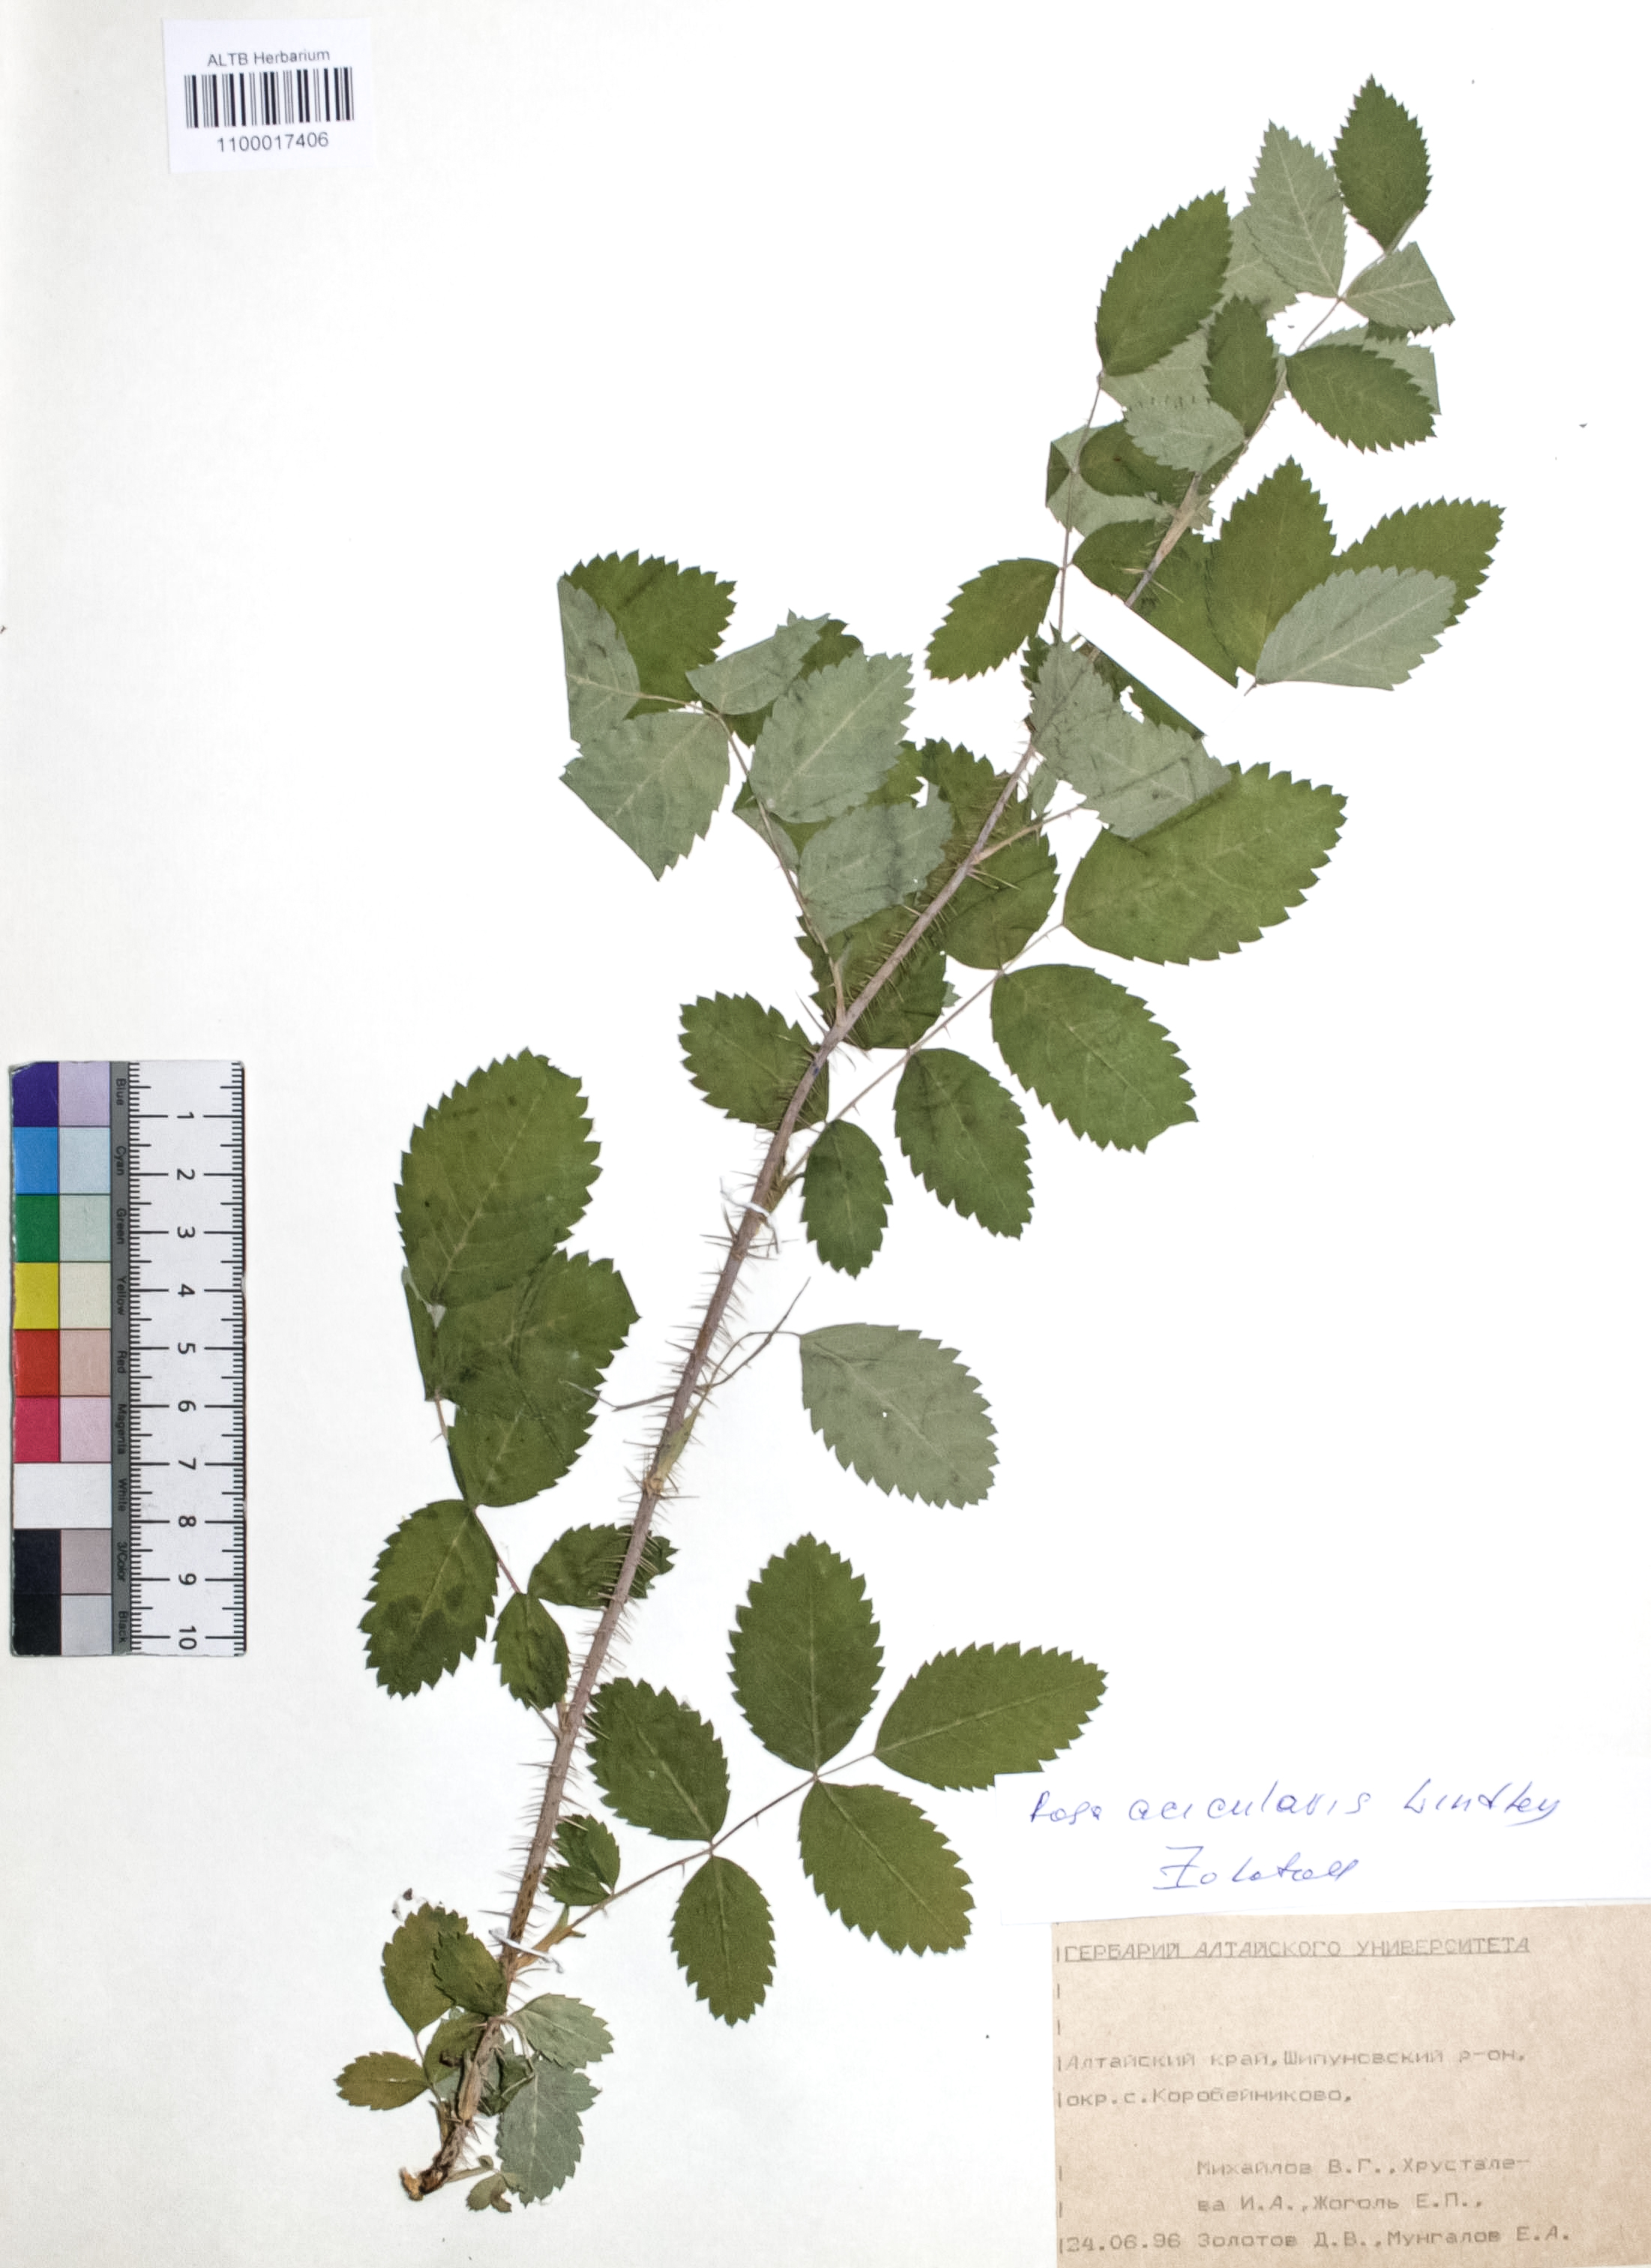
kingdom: Plantae
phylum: Tracheophyta
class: Magnoliopsida
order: Rosales
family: Rosaceae
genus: Rosa
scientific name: Rosa acicularis
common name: Prickly rose
